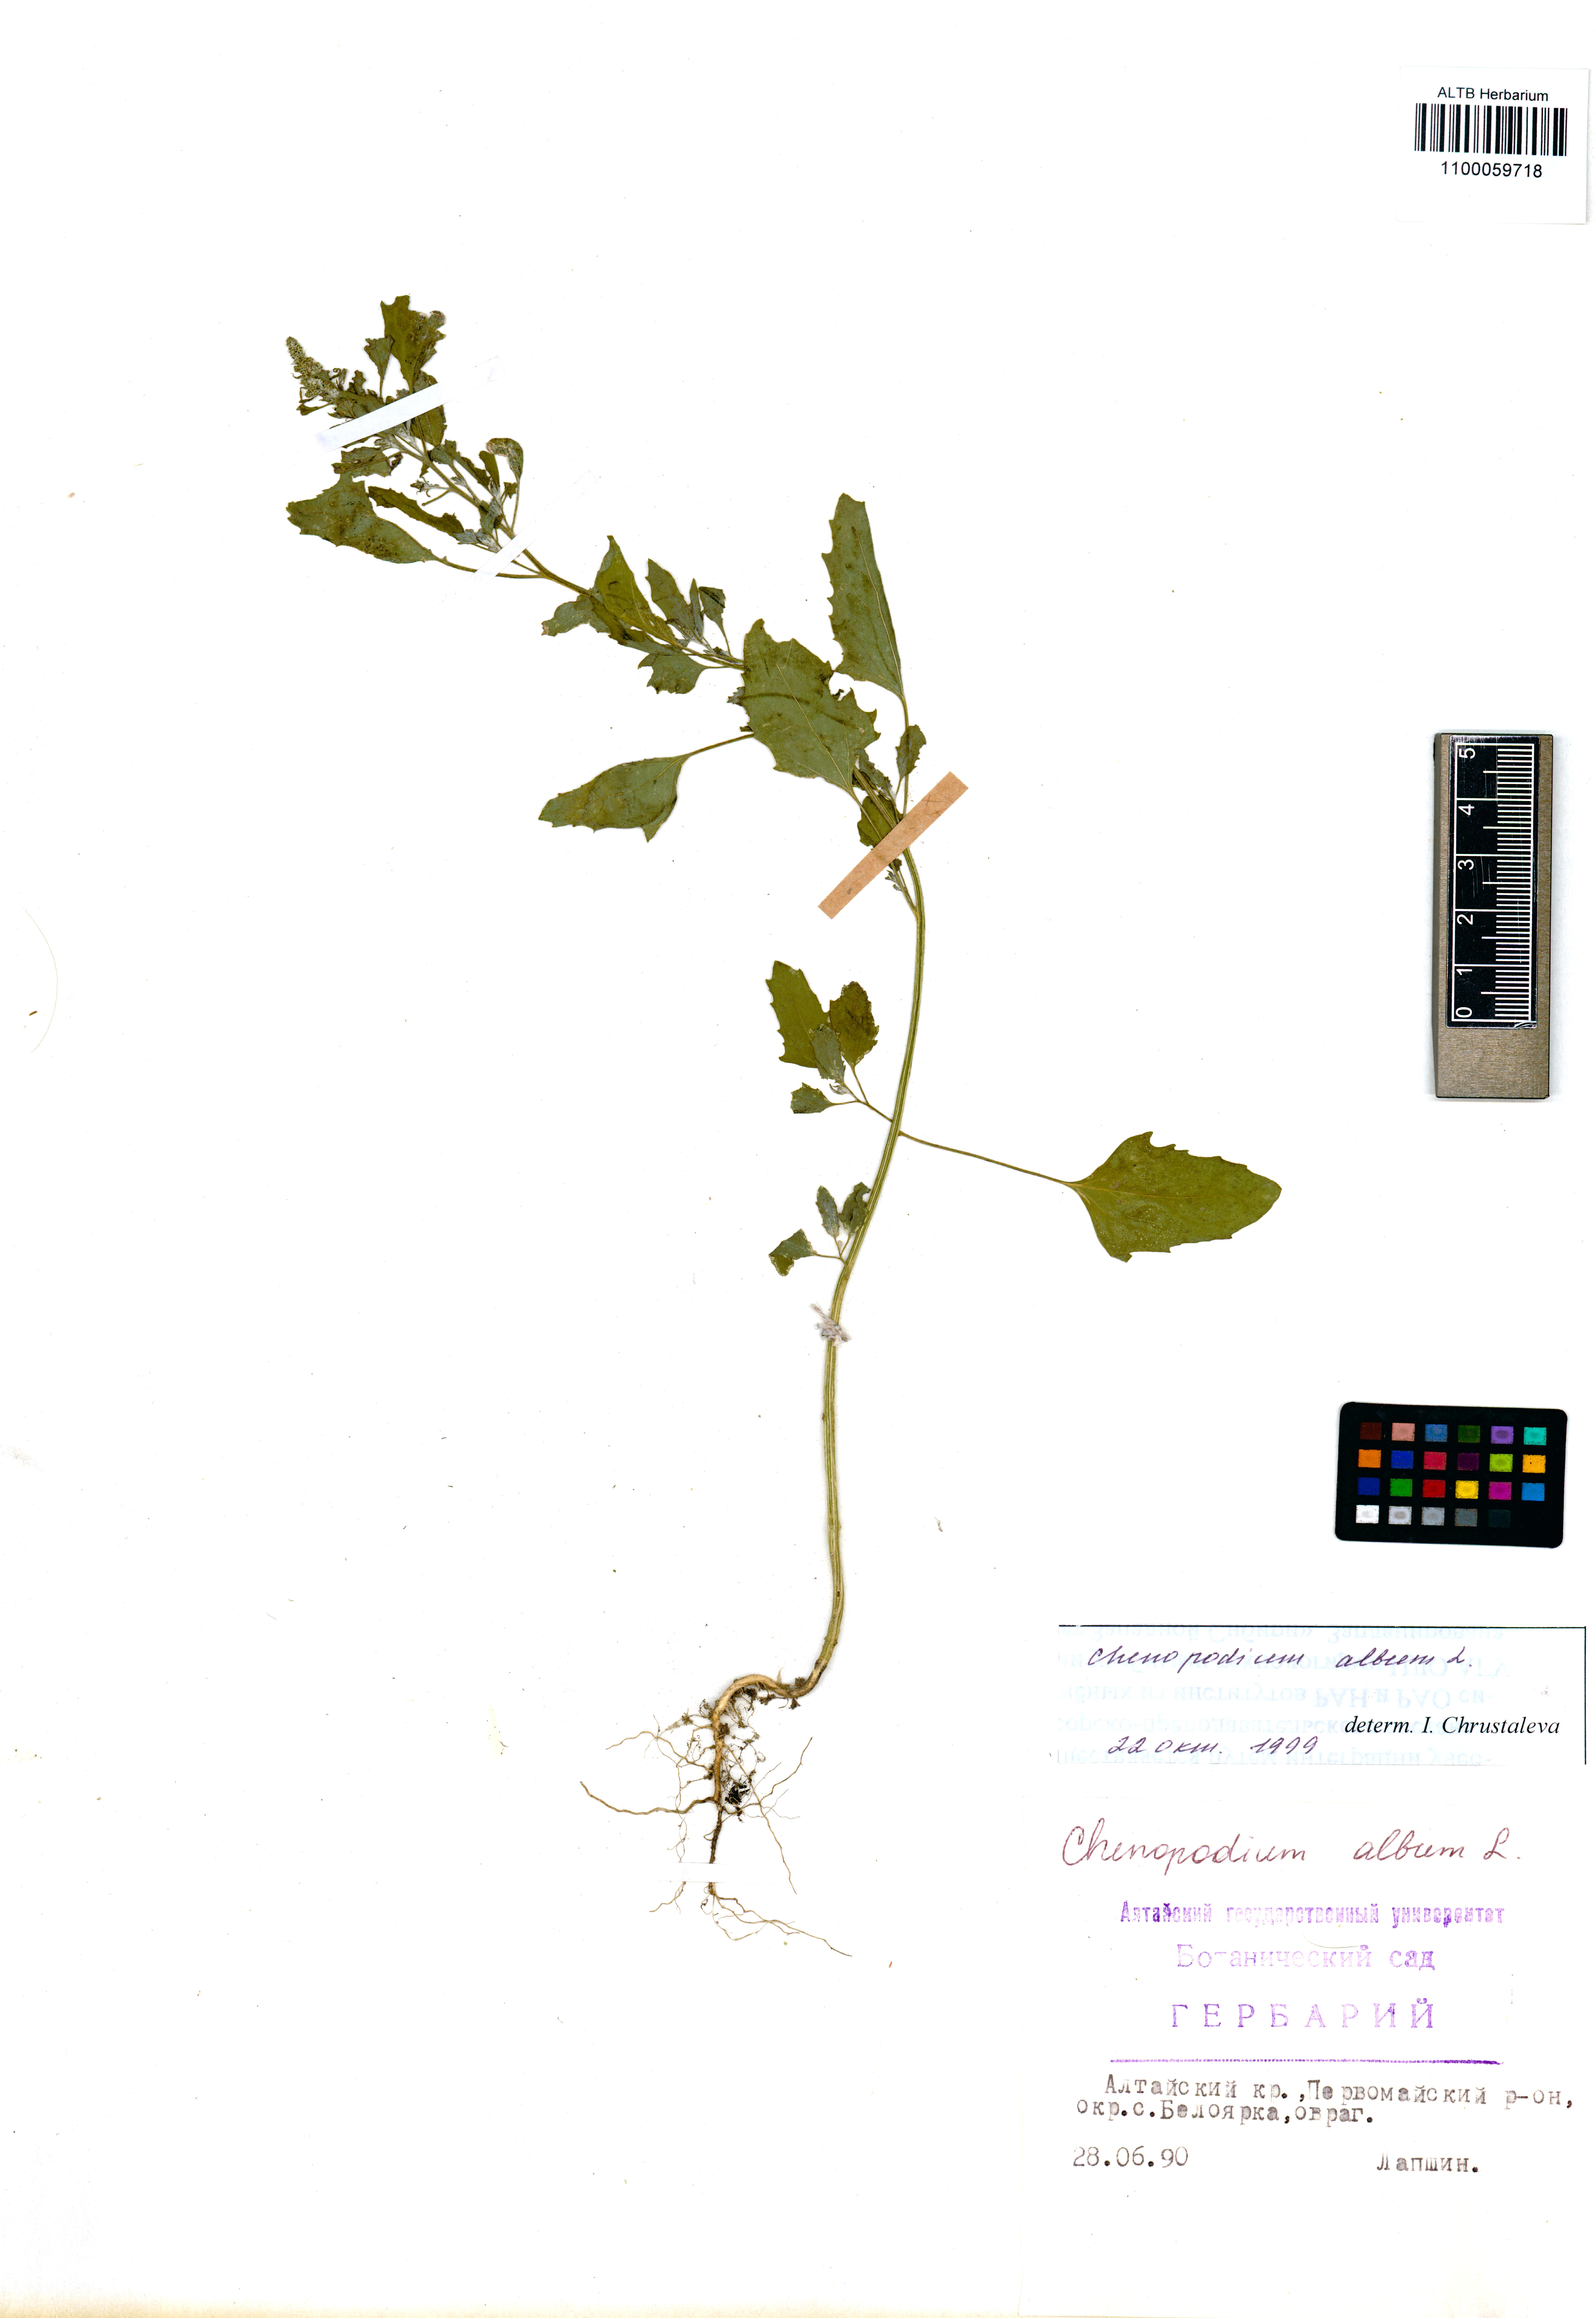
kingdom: Plantae
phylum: Tracheophyta
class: Magnoliopsida
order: Caryophyllales
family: Amaranthaceae
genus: Chenopodium
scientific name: Chenopodium album
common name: Fat-hen
